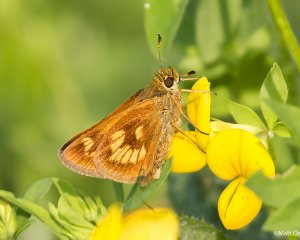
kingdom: Animalia
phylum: Arthropoda
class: Insecta
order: Lepidoptera
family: Hesperiidae
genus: Polites
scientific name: Polites
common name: Long Dash Skipper
